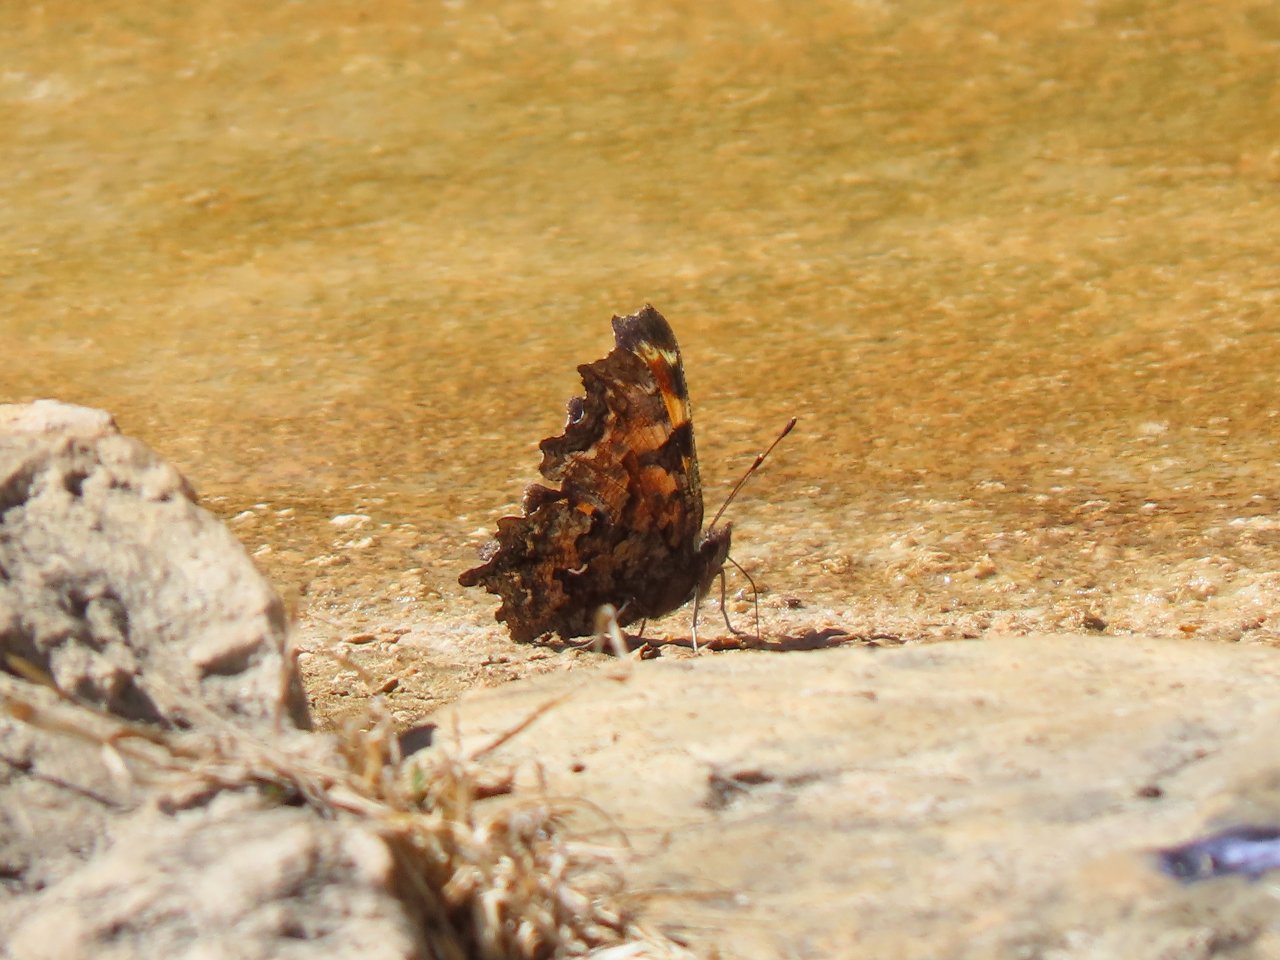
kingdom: Animalia
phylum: Arthropoda
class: Insecta
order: Lepidoptera
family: Nymphalidae
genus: Polygonia
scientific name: Polygonia comma
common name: Eastern Comma
